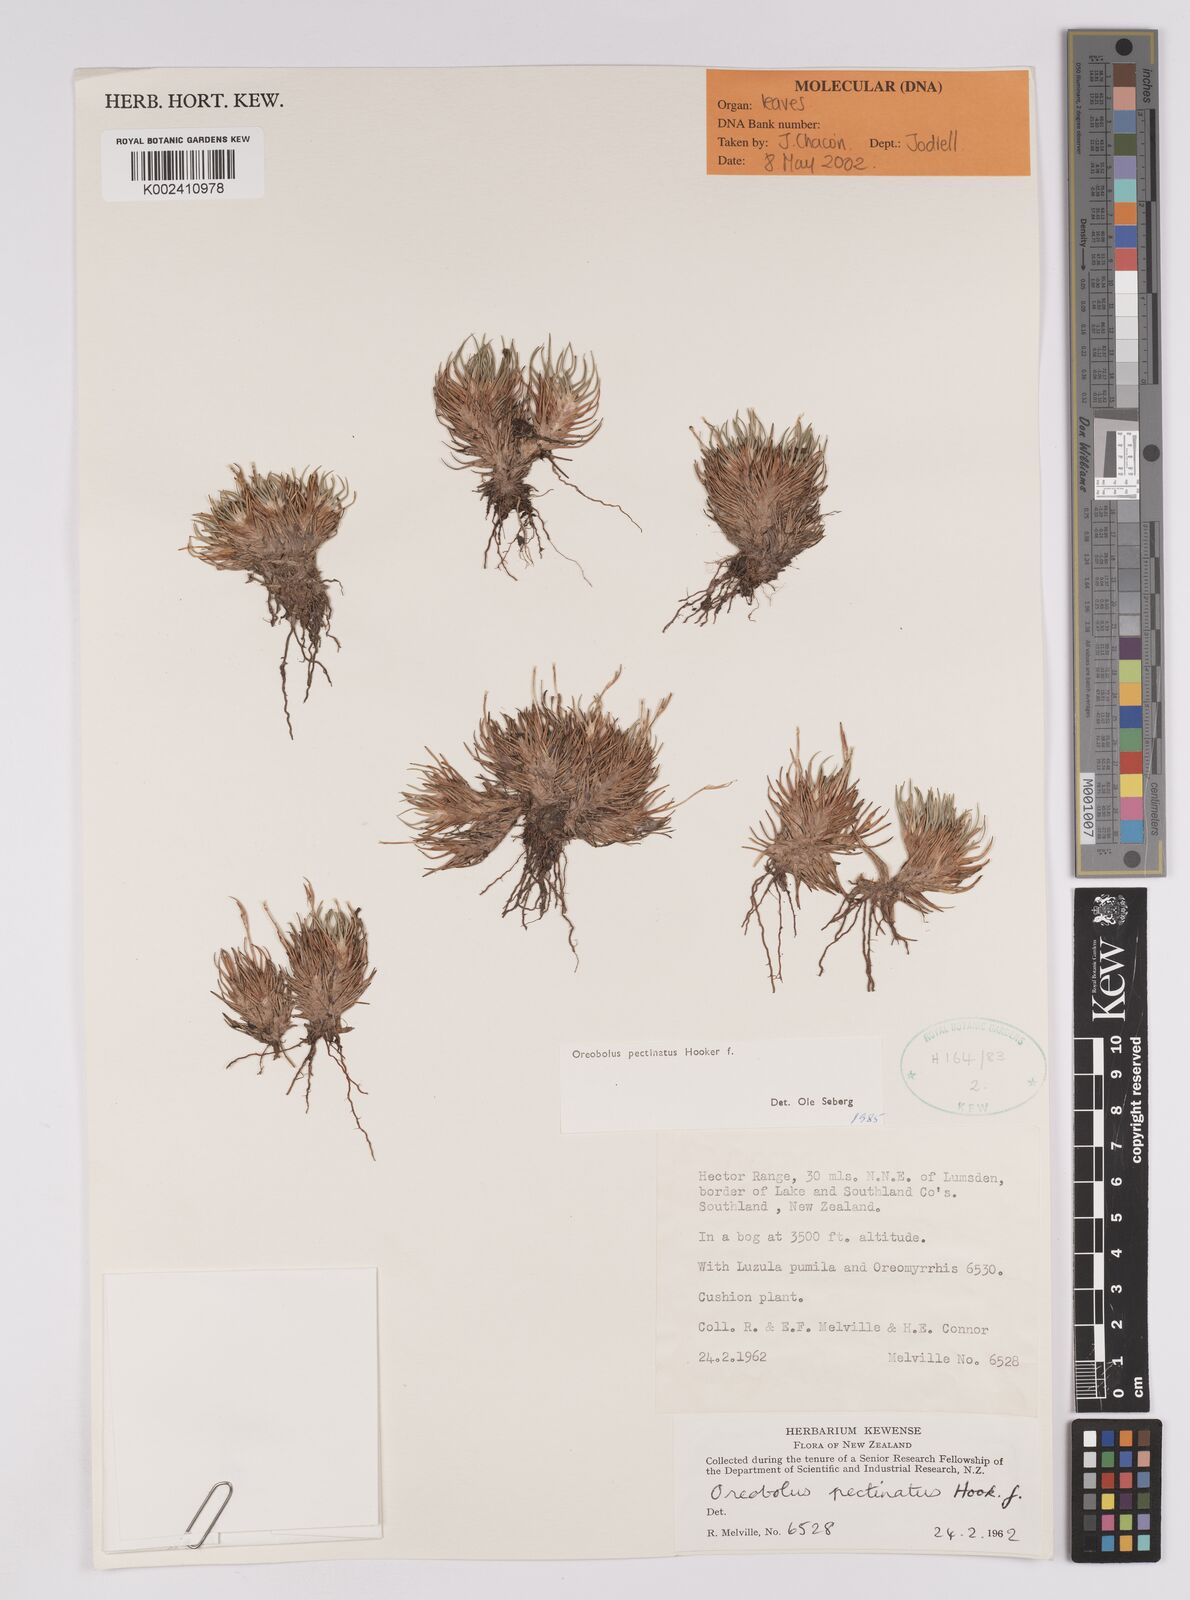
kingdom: Plantae
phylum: Tracheophyta
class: Liliopsida
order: Poales
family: Cyperaceae
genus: Oreobolus
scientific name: Oreobolus pectinatus
